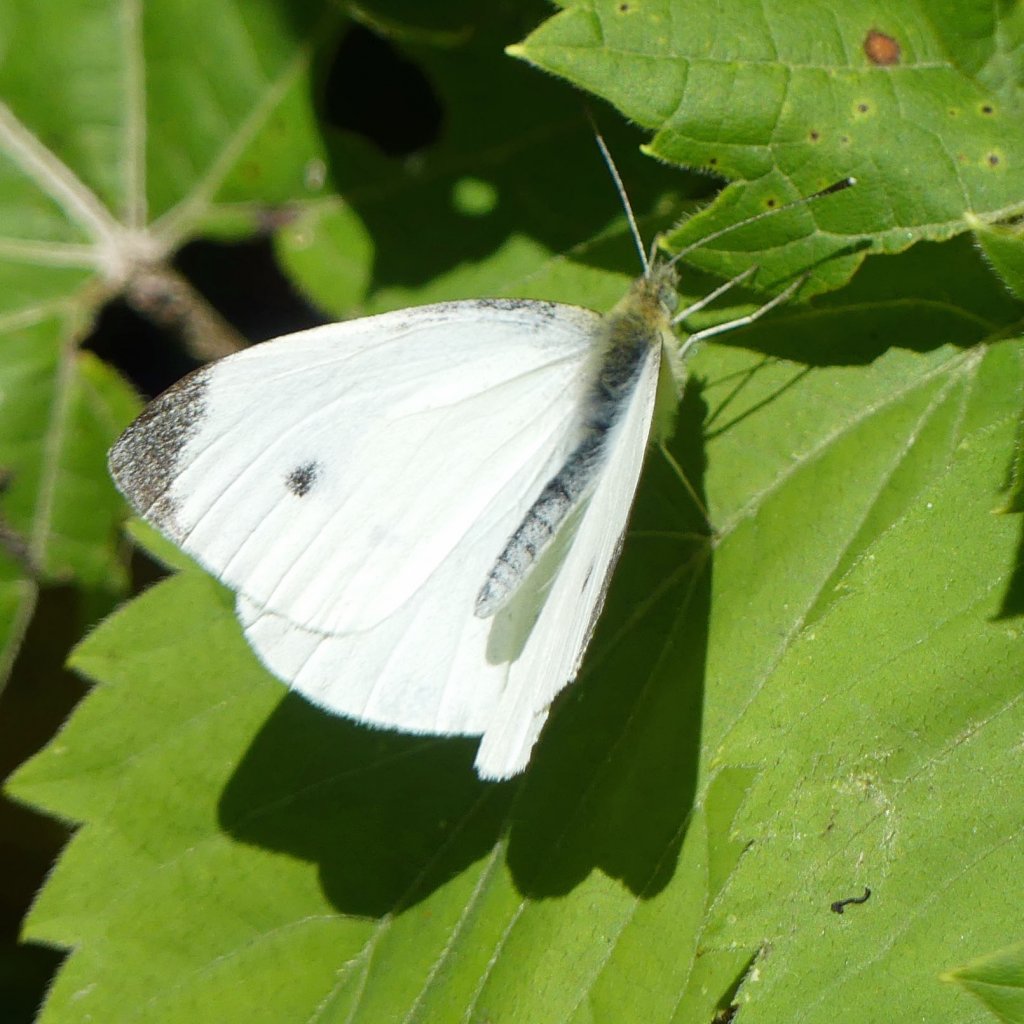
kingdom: Animalia
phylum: Arthropoda
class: Insecta
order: Lepidoptera
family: Pieridae
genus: Pieris
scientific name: Pieris rapae
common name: Cabbage White
